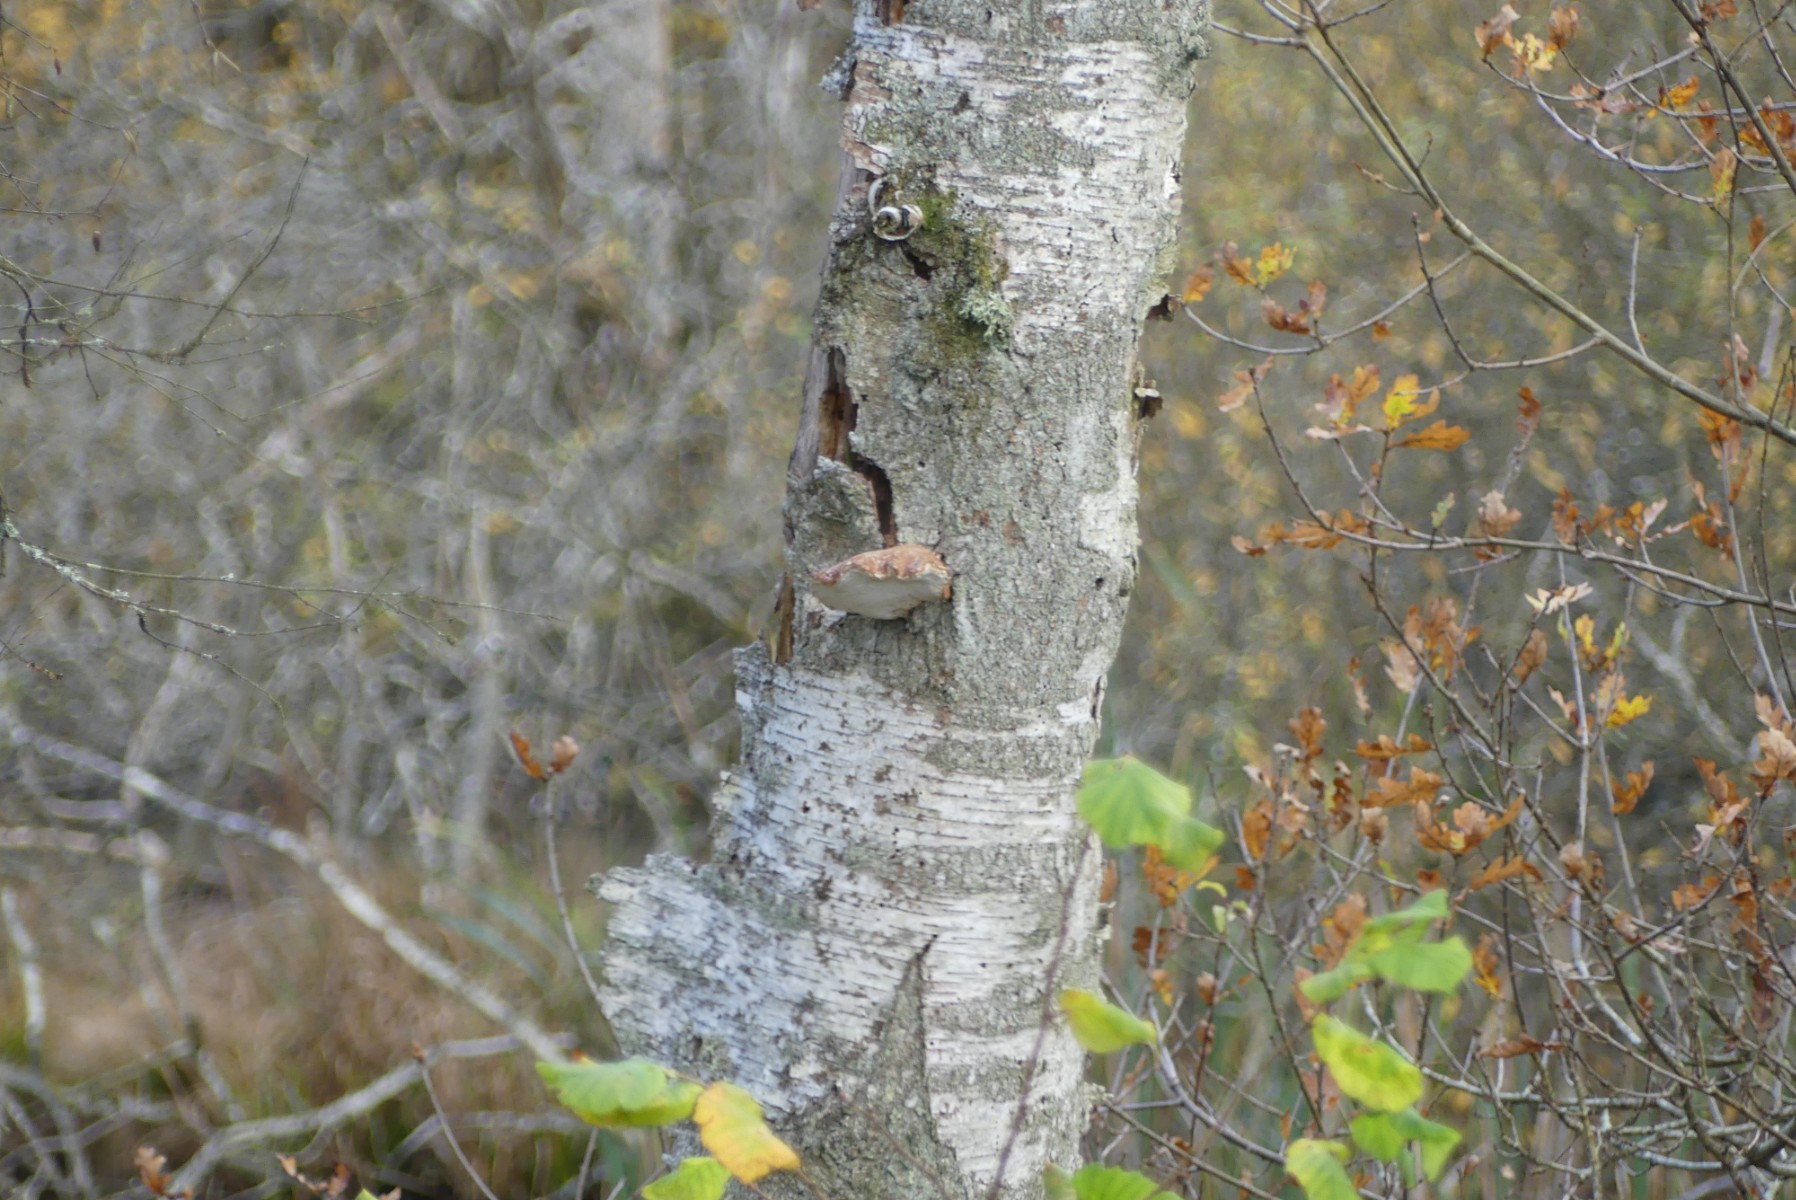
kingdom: Fungi
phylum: Basidiomycota
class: Agaricomycetes
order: Polyporales
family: Fomitopsidaceae
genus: Fomitopsis
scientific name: Fomitopsis betulina
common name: birkeporesvamp
